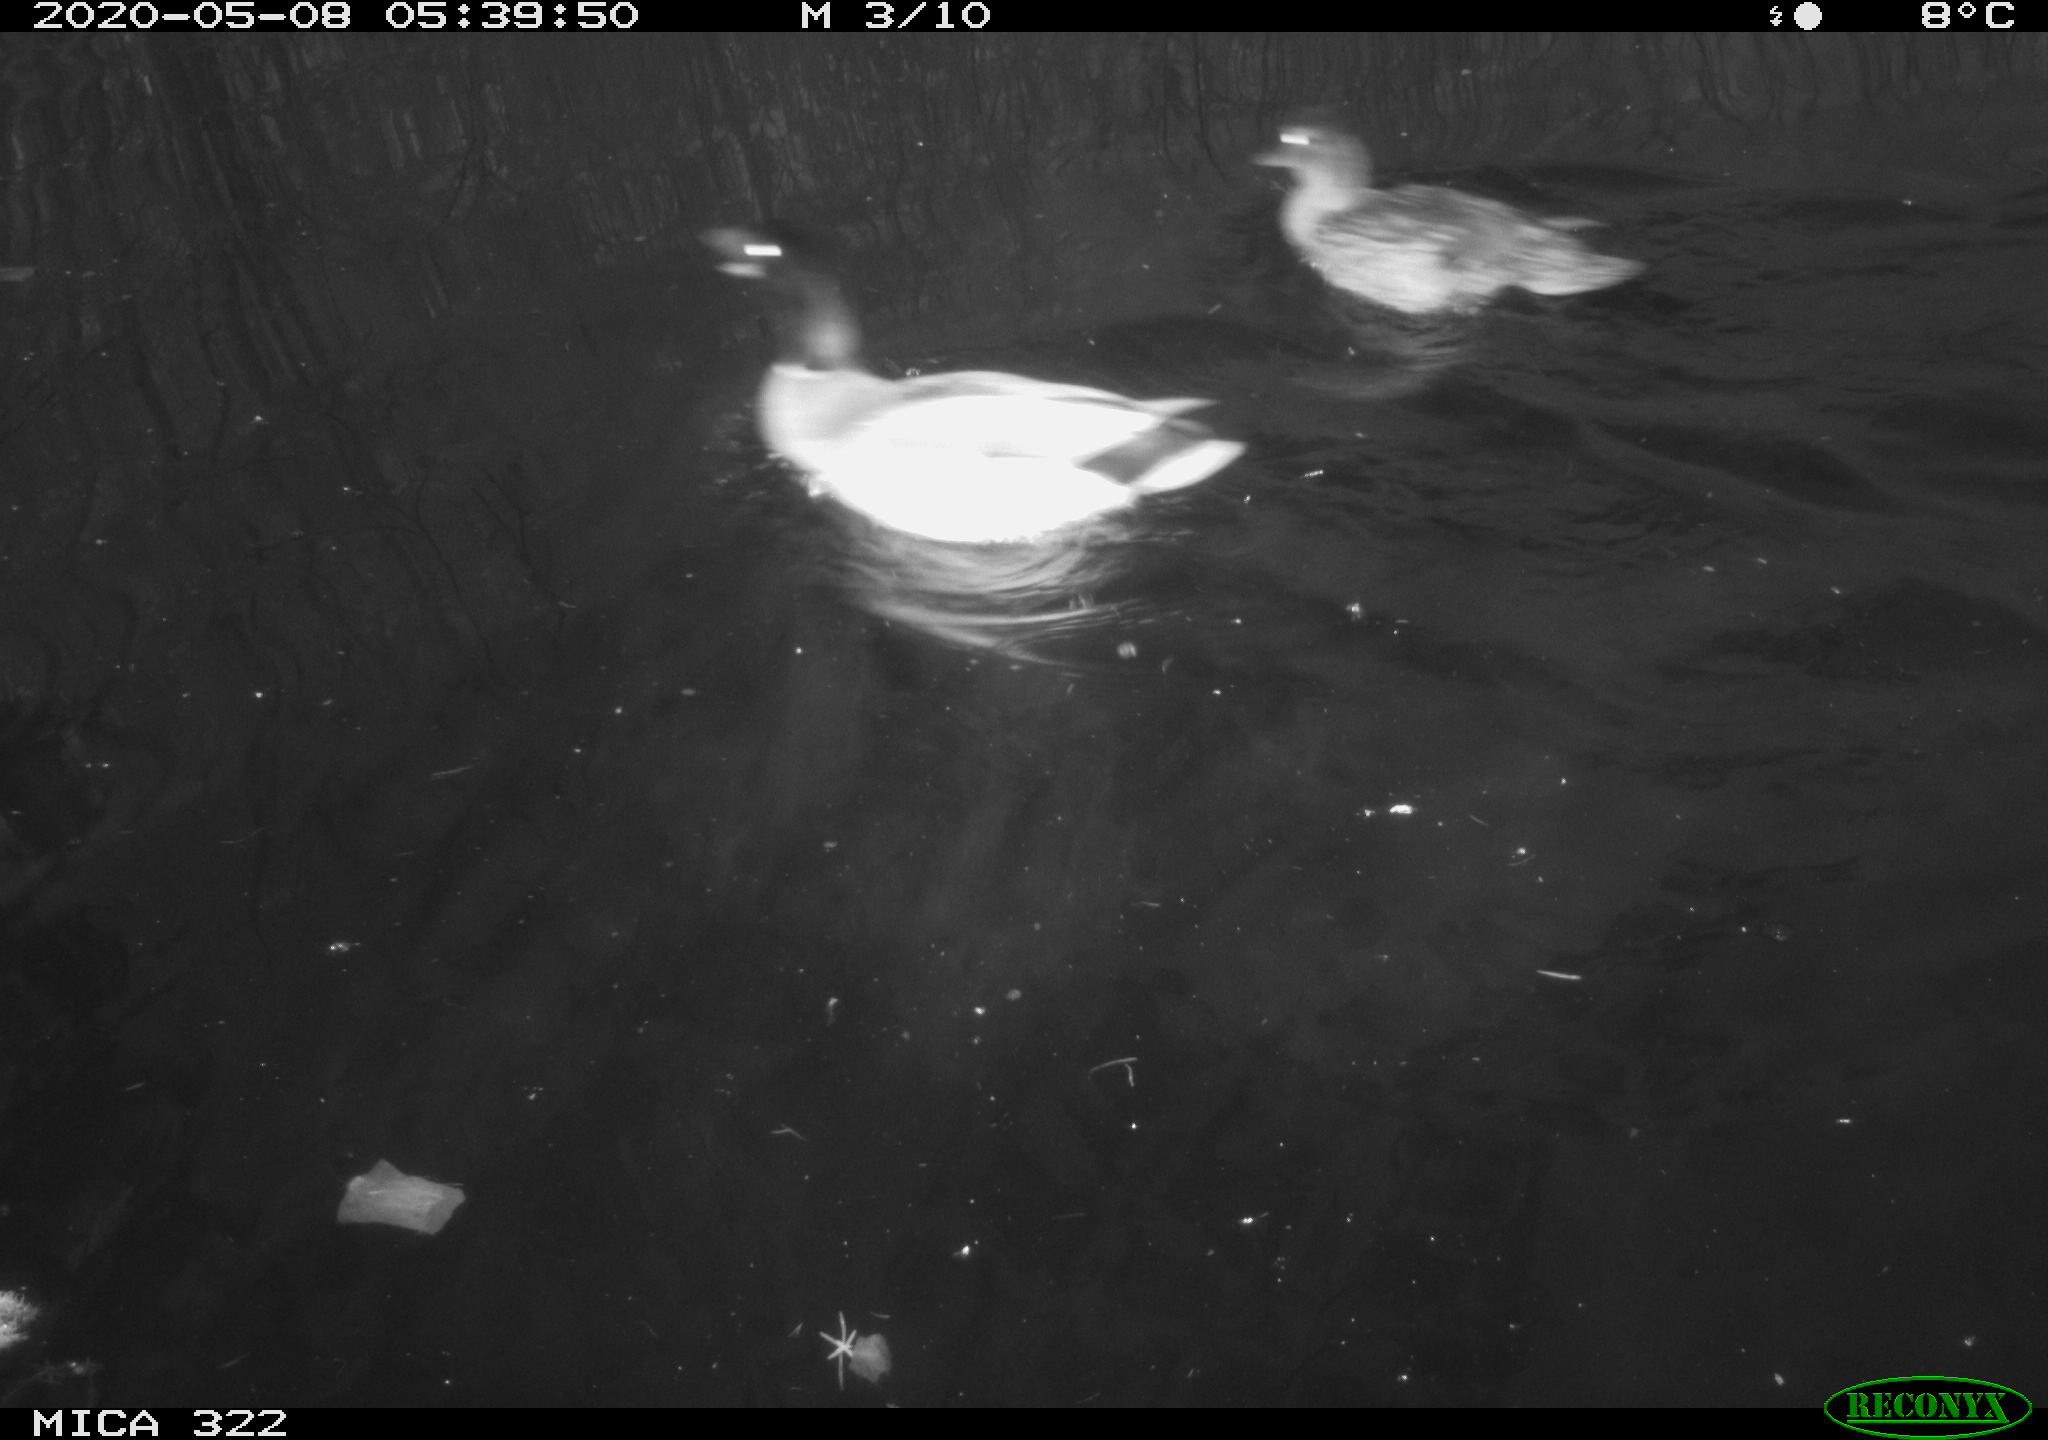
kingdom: Animalia
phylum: Chordata
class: Aves
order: Anseriformes
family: Anatidae
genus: Anas
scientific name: Anas platyrhynchos
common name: Mallard
